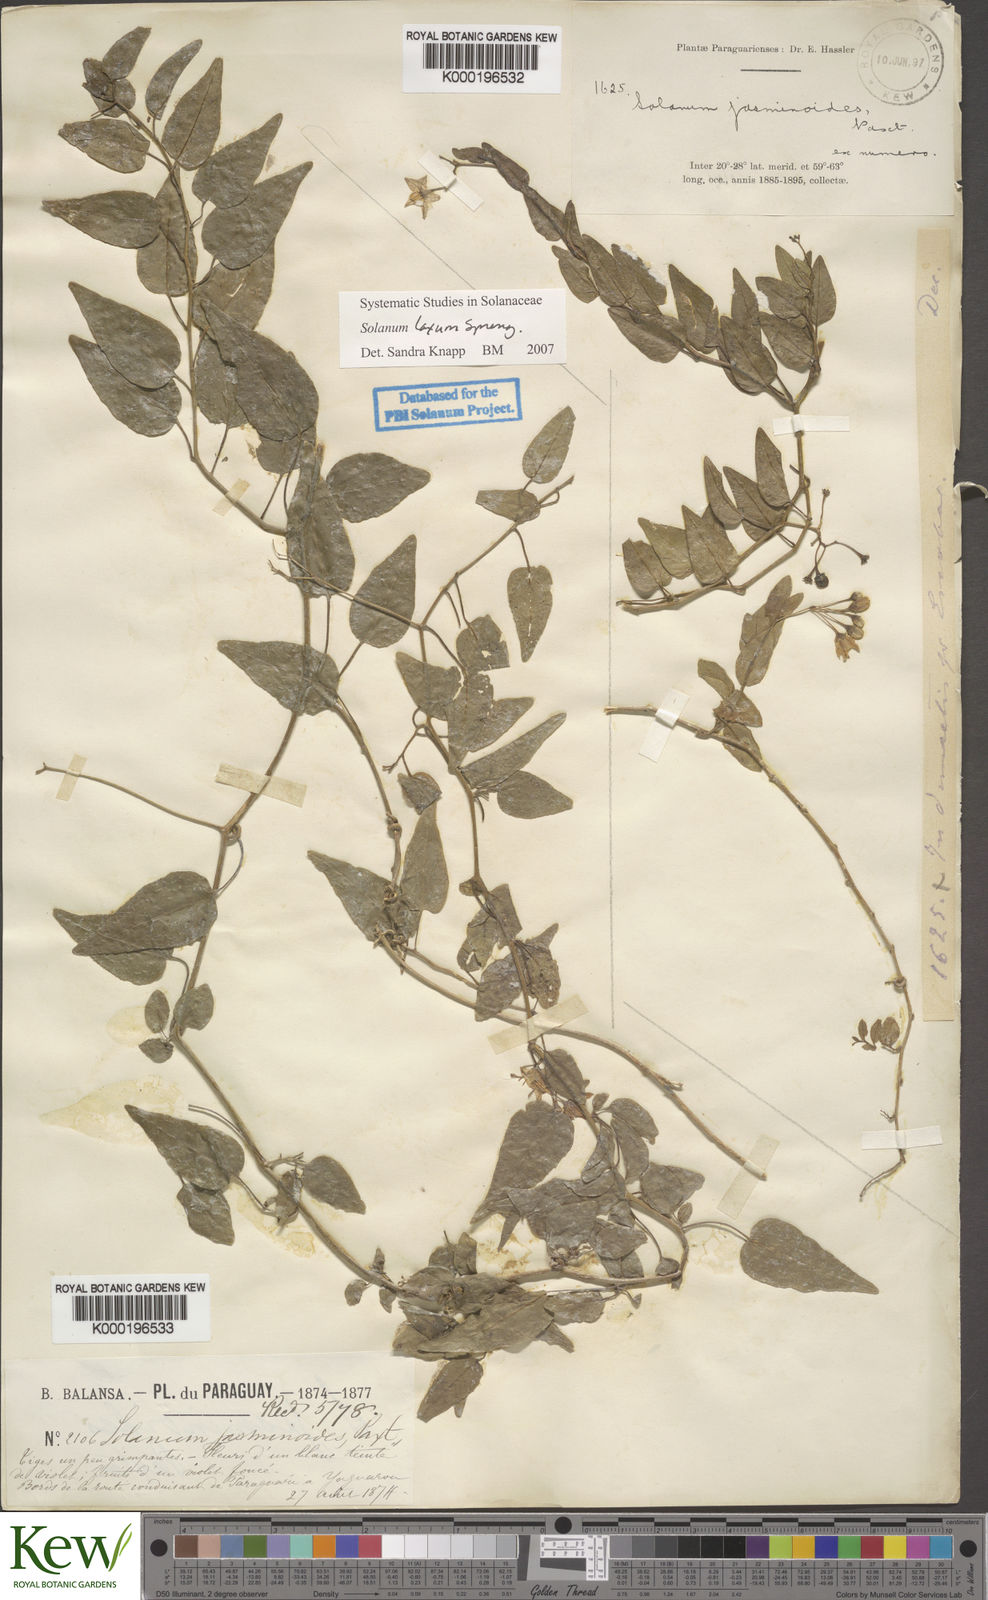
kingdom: Plantae
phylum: Tracheophyta
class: Magnoliopsida
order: Solanales
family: Solanaceae
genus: Solanum
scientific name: Solanum laxum
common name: Nightshade
